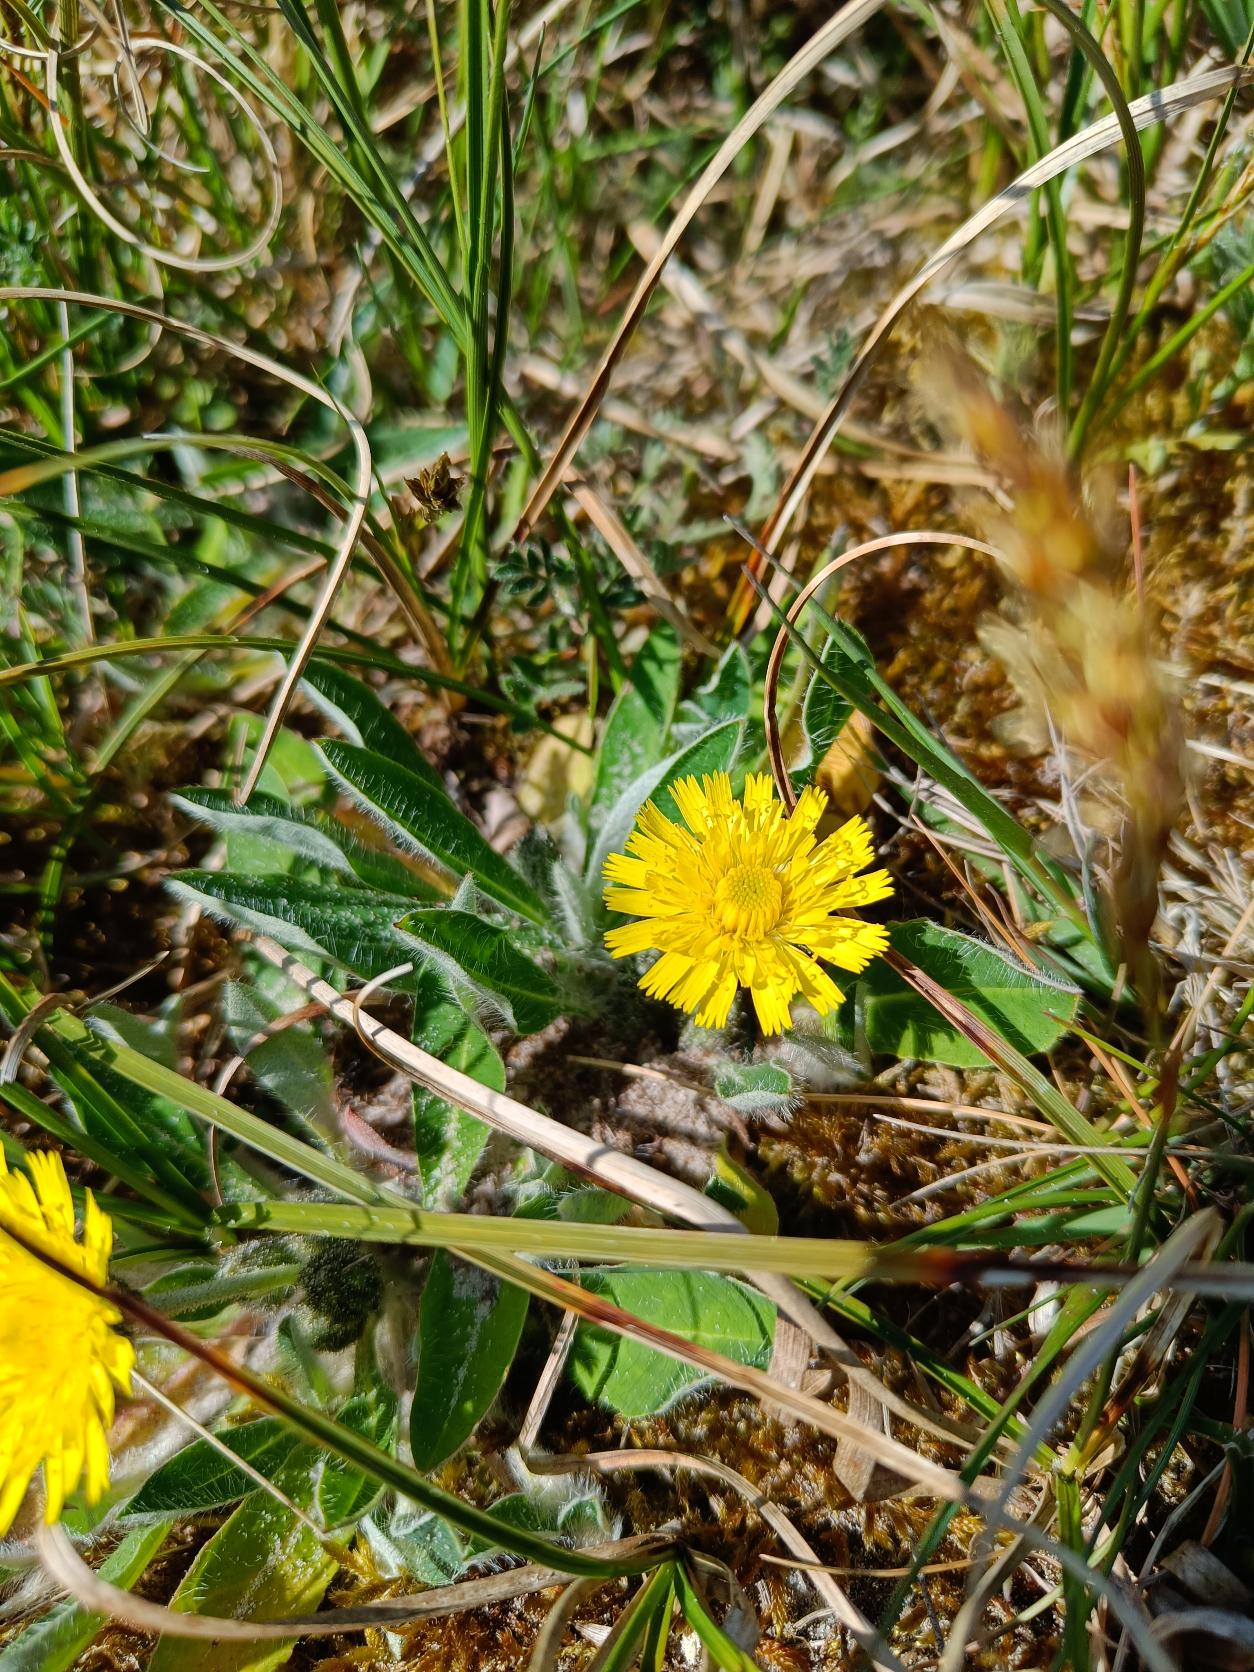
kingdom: Plantae
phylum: Tracheophyta
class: Magnoliopsida
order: Asterales
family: Asteraceae
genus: Pilosella
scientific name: Pilosella officinarum
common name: Håret høgeurt
